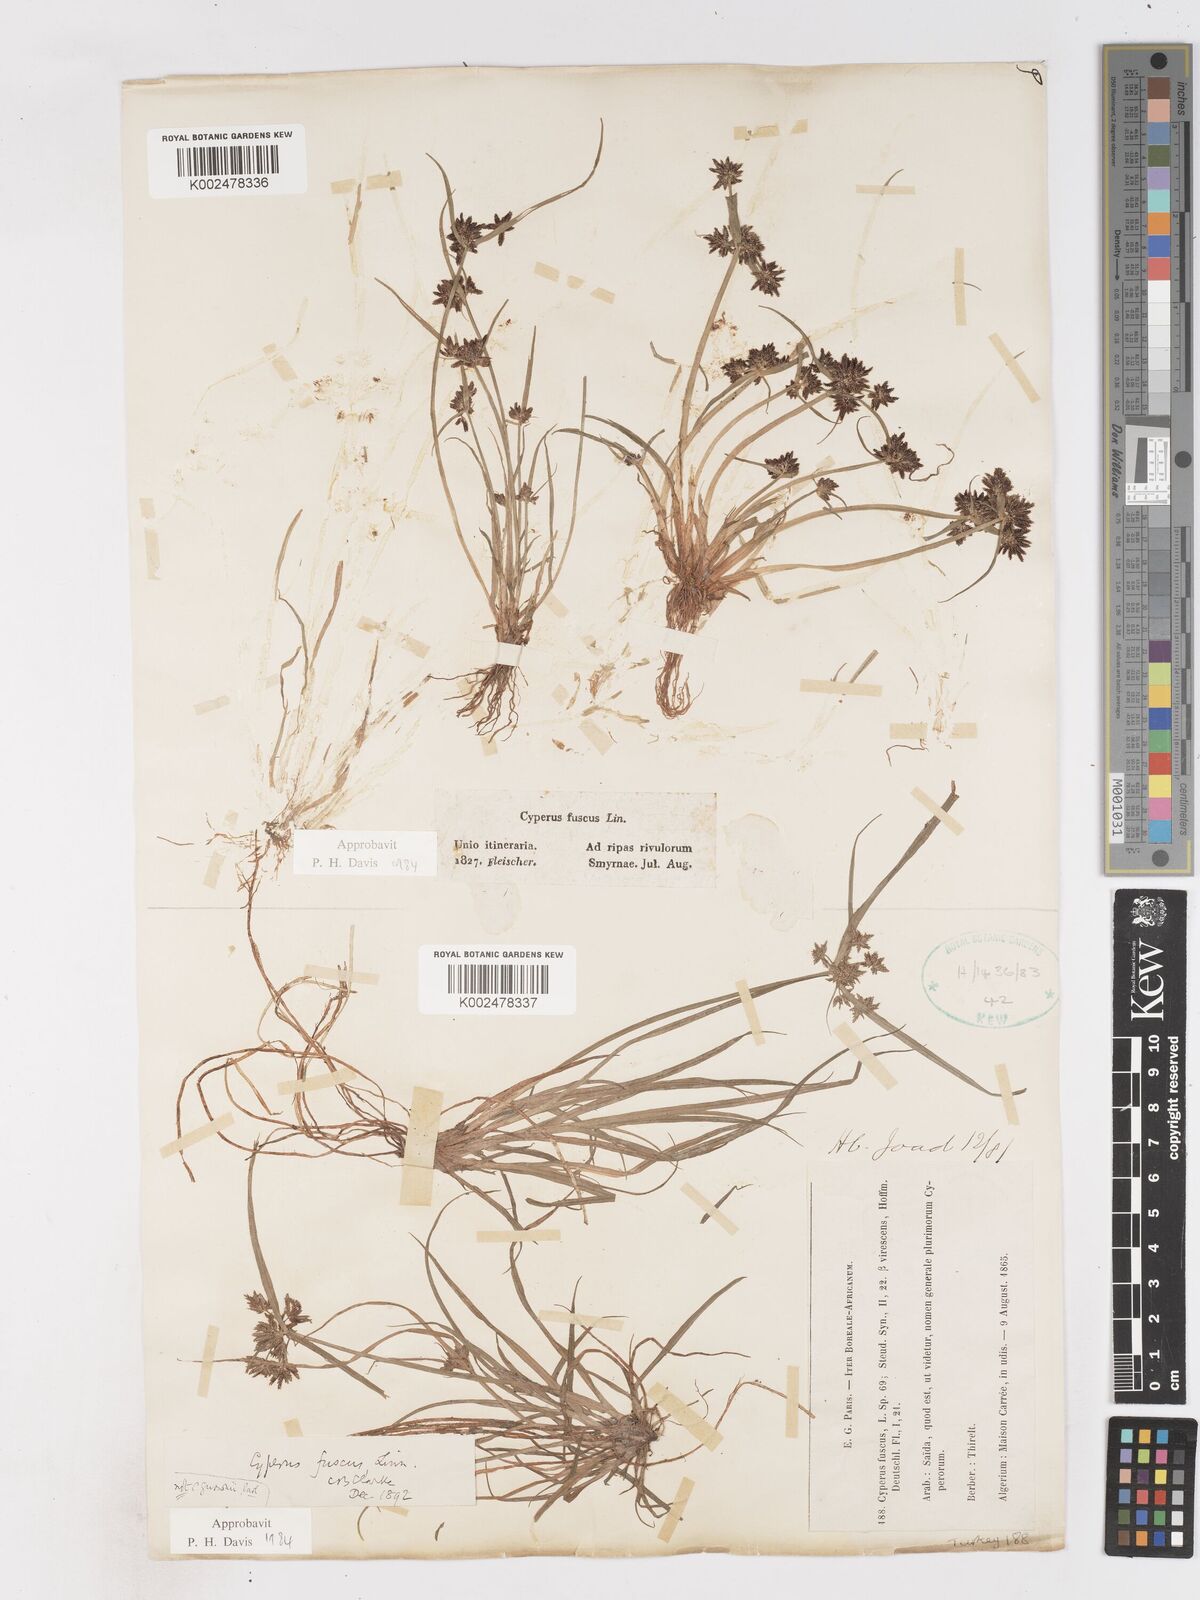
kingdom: Plantae
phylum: Tracheophyta
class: Liliopsida
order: Poales
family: Cyperaceae
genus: Cyperus
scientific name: Cyperus fuscus
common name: Brown galingale
